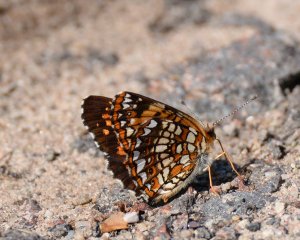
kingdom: Animalia
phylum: Arthropoda
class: Insecta
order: Lepidoptera
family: Nymphalidae
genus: Chlosyne
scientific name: Chlosyne harrisii
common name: Harris's Checkerspot
